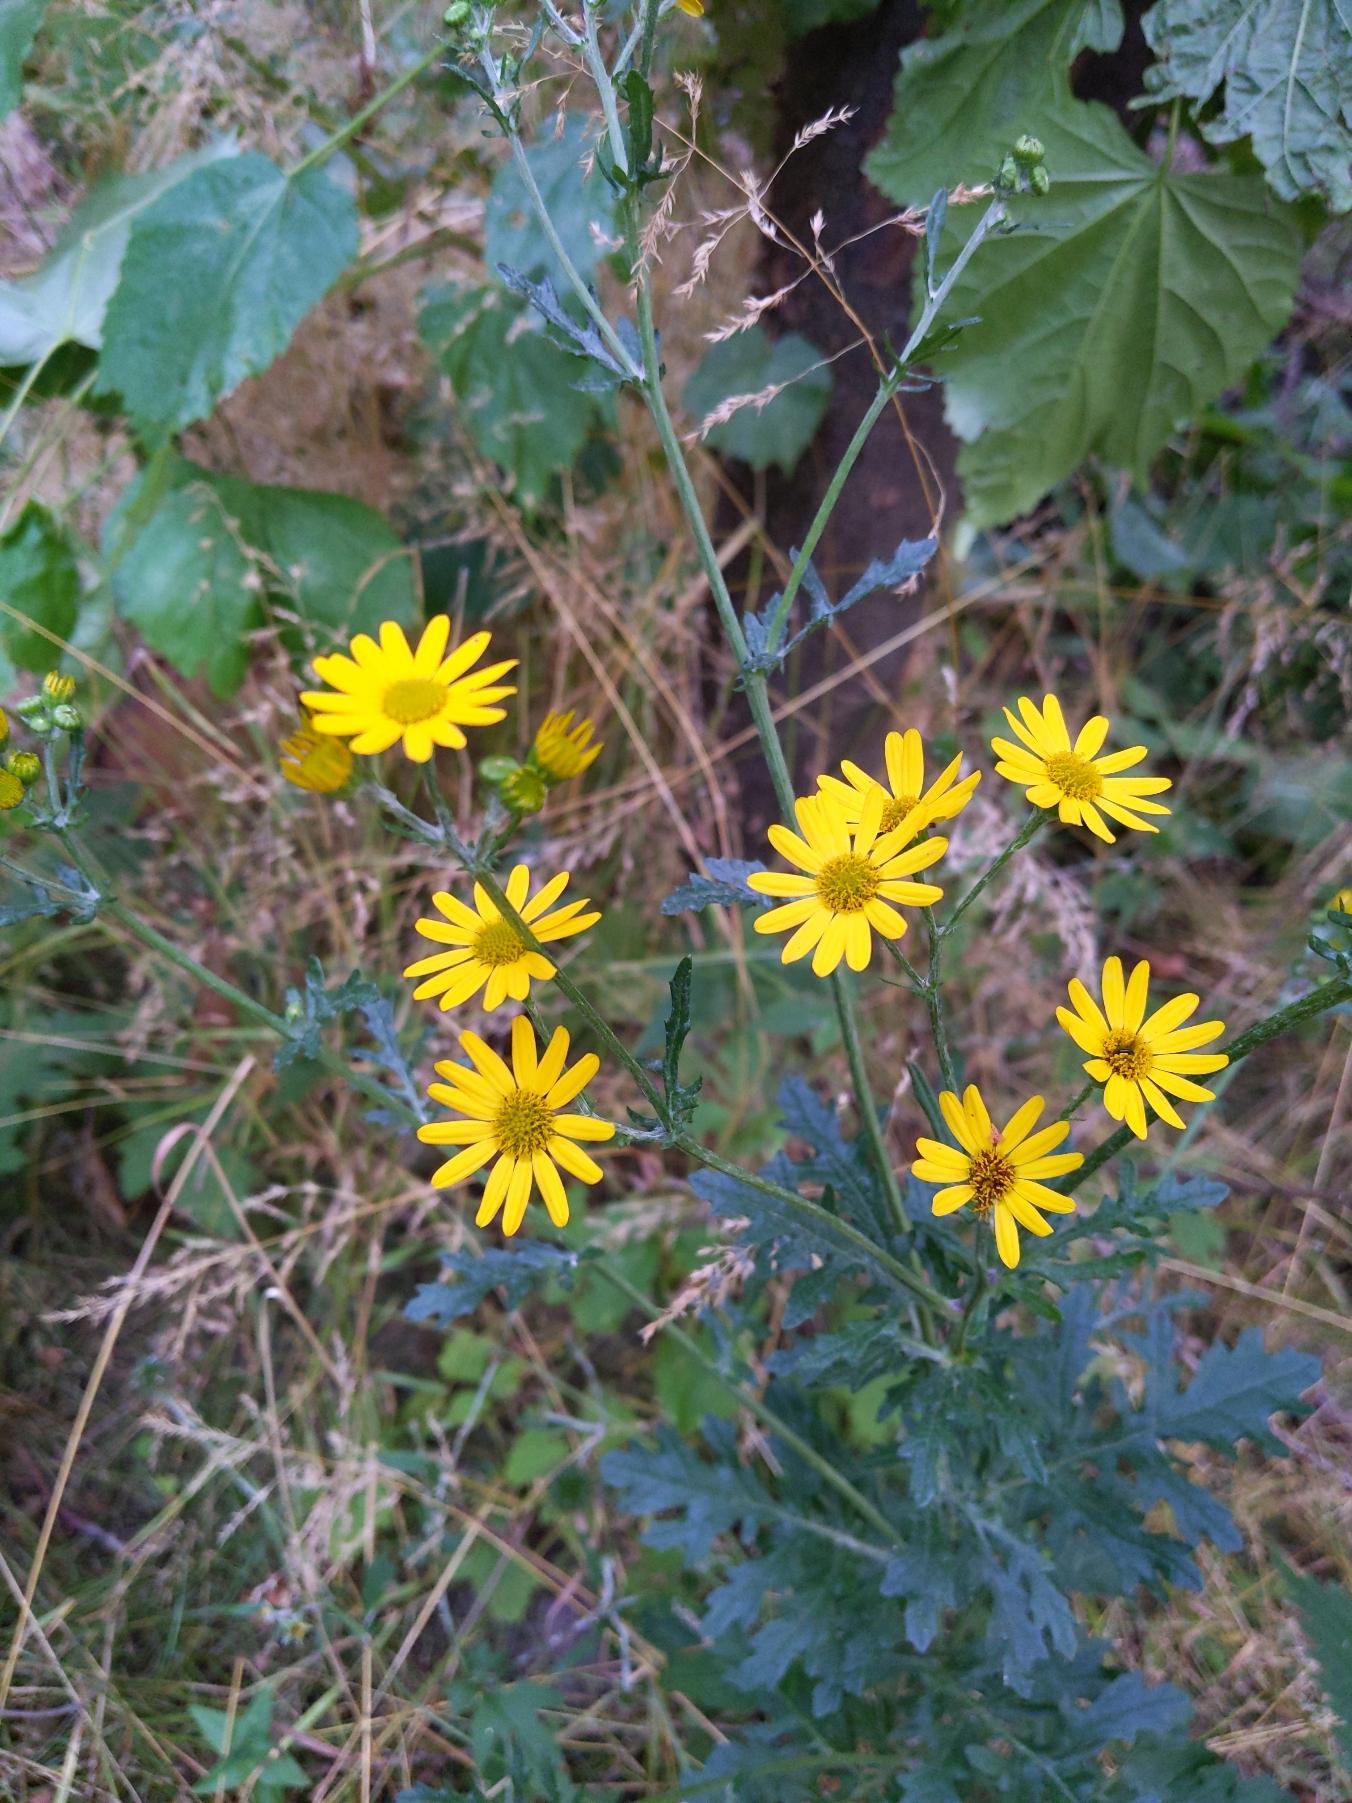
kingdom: Plantae
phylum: Tracheophyta
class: Magnoliopsida
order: Asterales
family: Asteraceae
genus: Jacobaea
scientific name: Jacobaea vulgaris
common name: Eng-brandbæger
